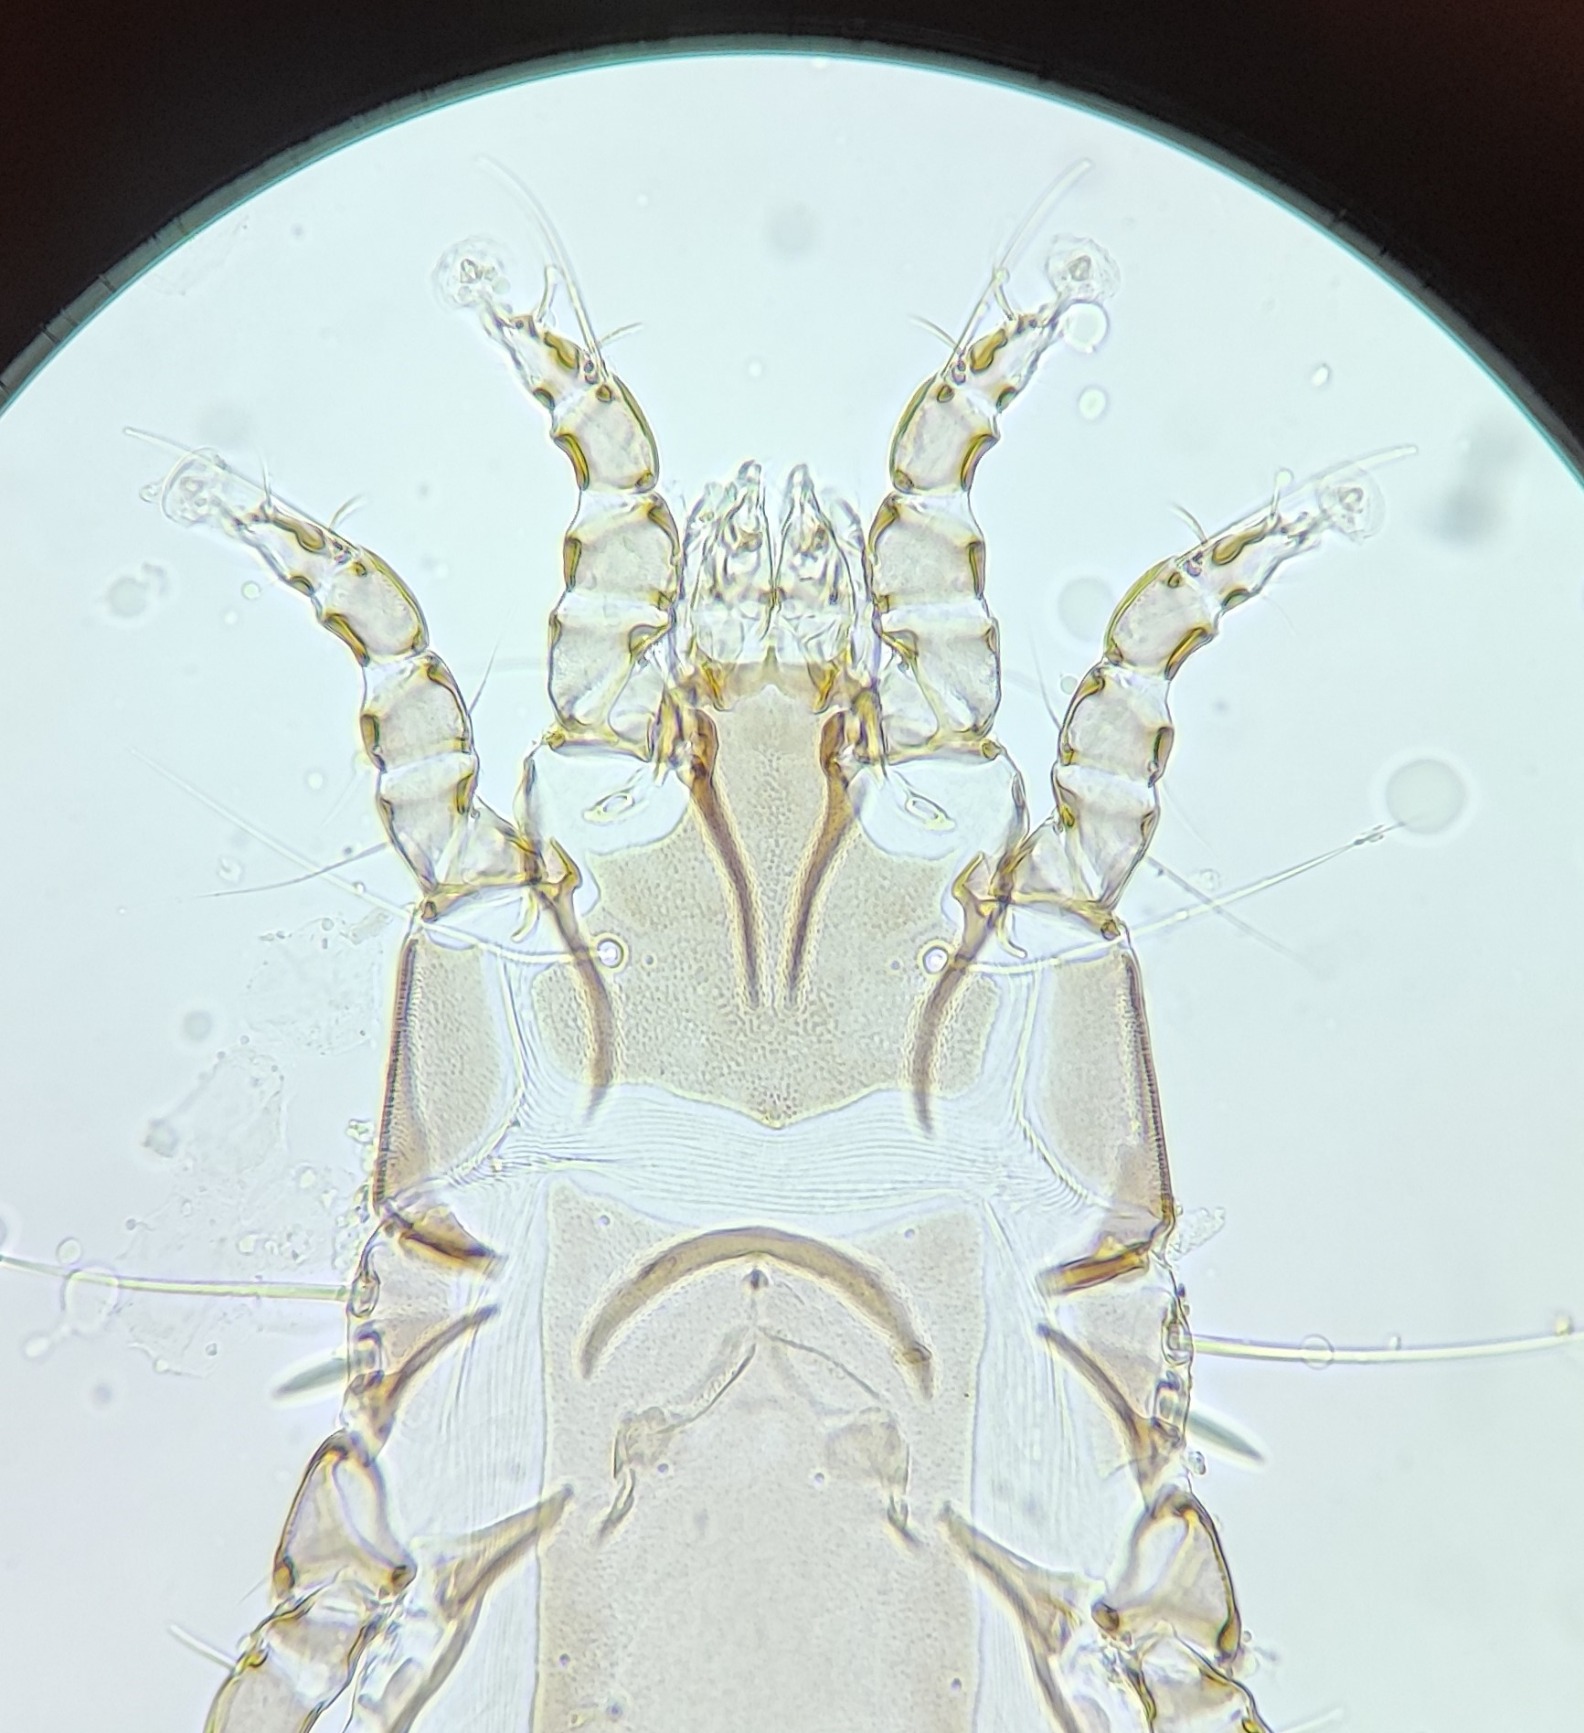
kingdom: Animalia
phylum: Arthropoda
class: Arachnida
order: Sarcoptiformes
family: Proctophyllodidae
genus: Proctophyllodes
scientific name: Proctophyllodes fuchsi
